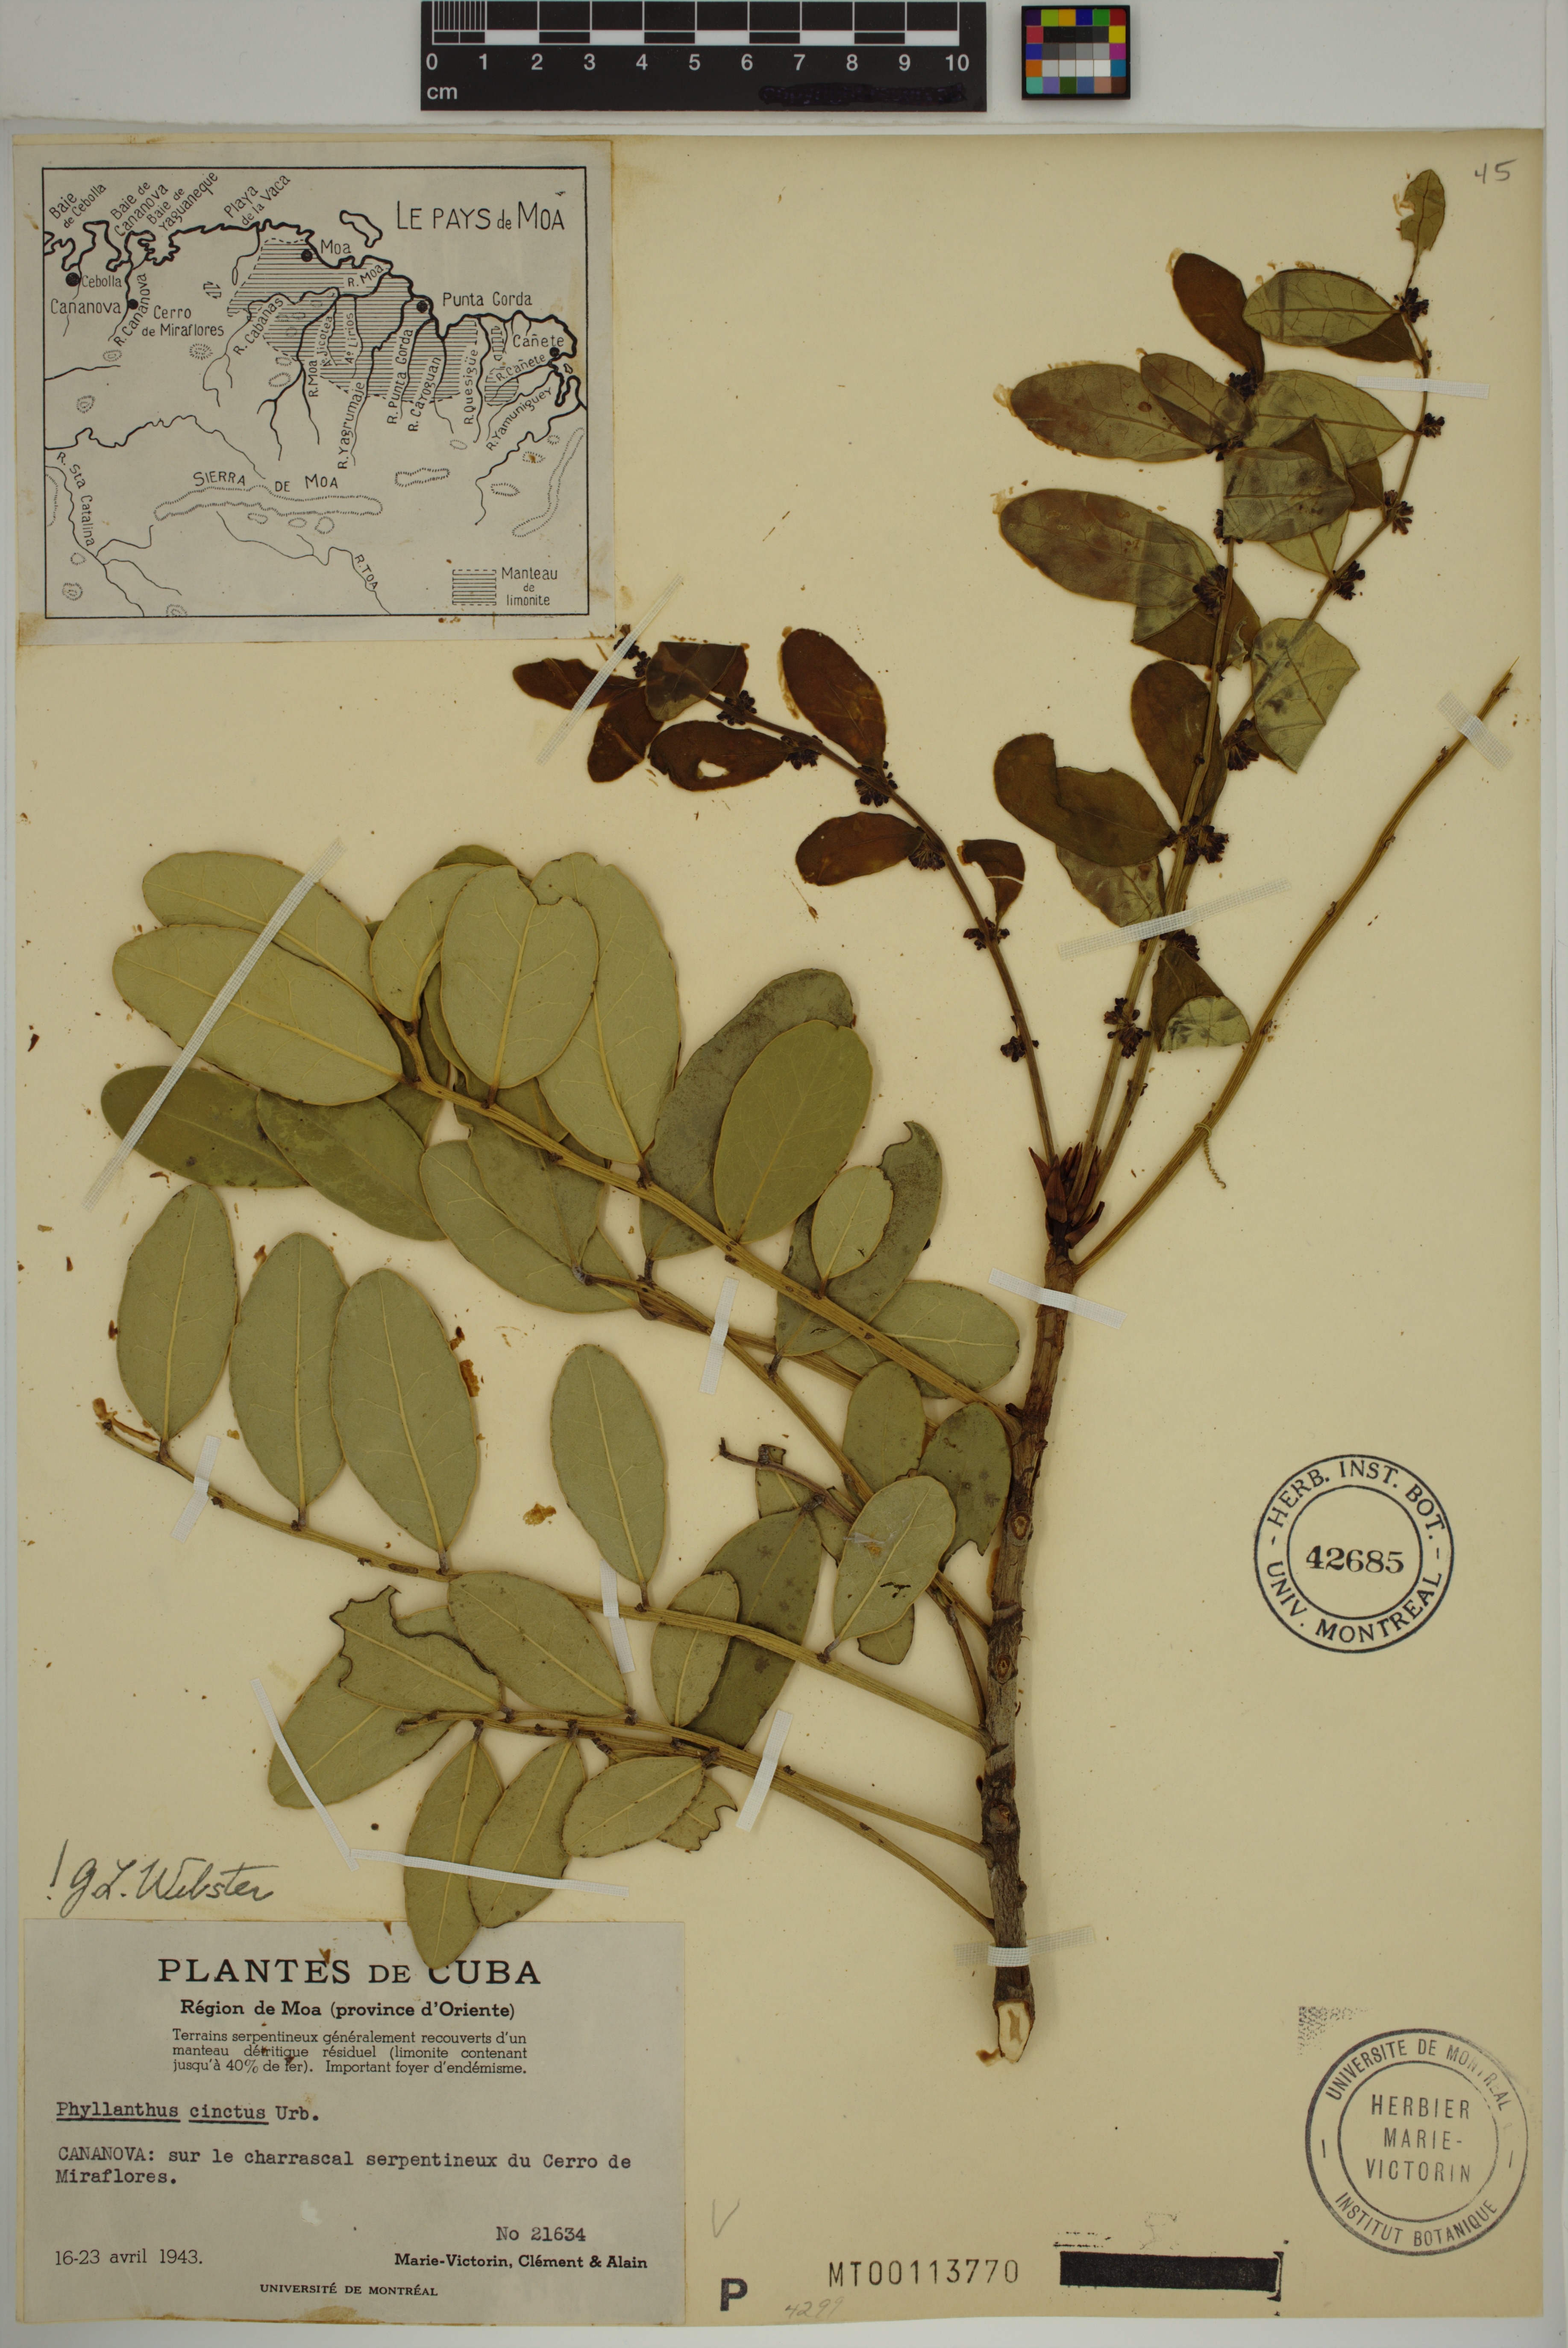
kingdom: Plantae
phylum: Tracheophyta
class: Magnoliopsida
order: Malpighiales
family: Phyllanthaceae
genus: Phyllanthus
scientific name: Phyllanthus cinctus
